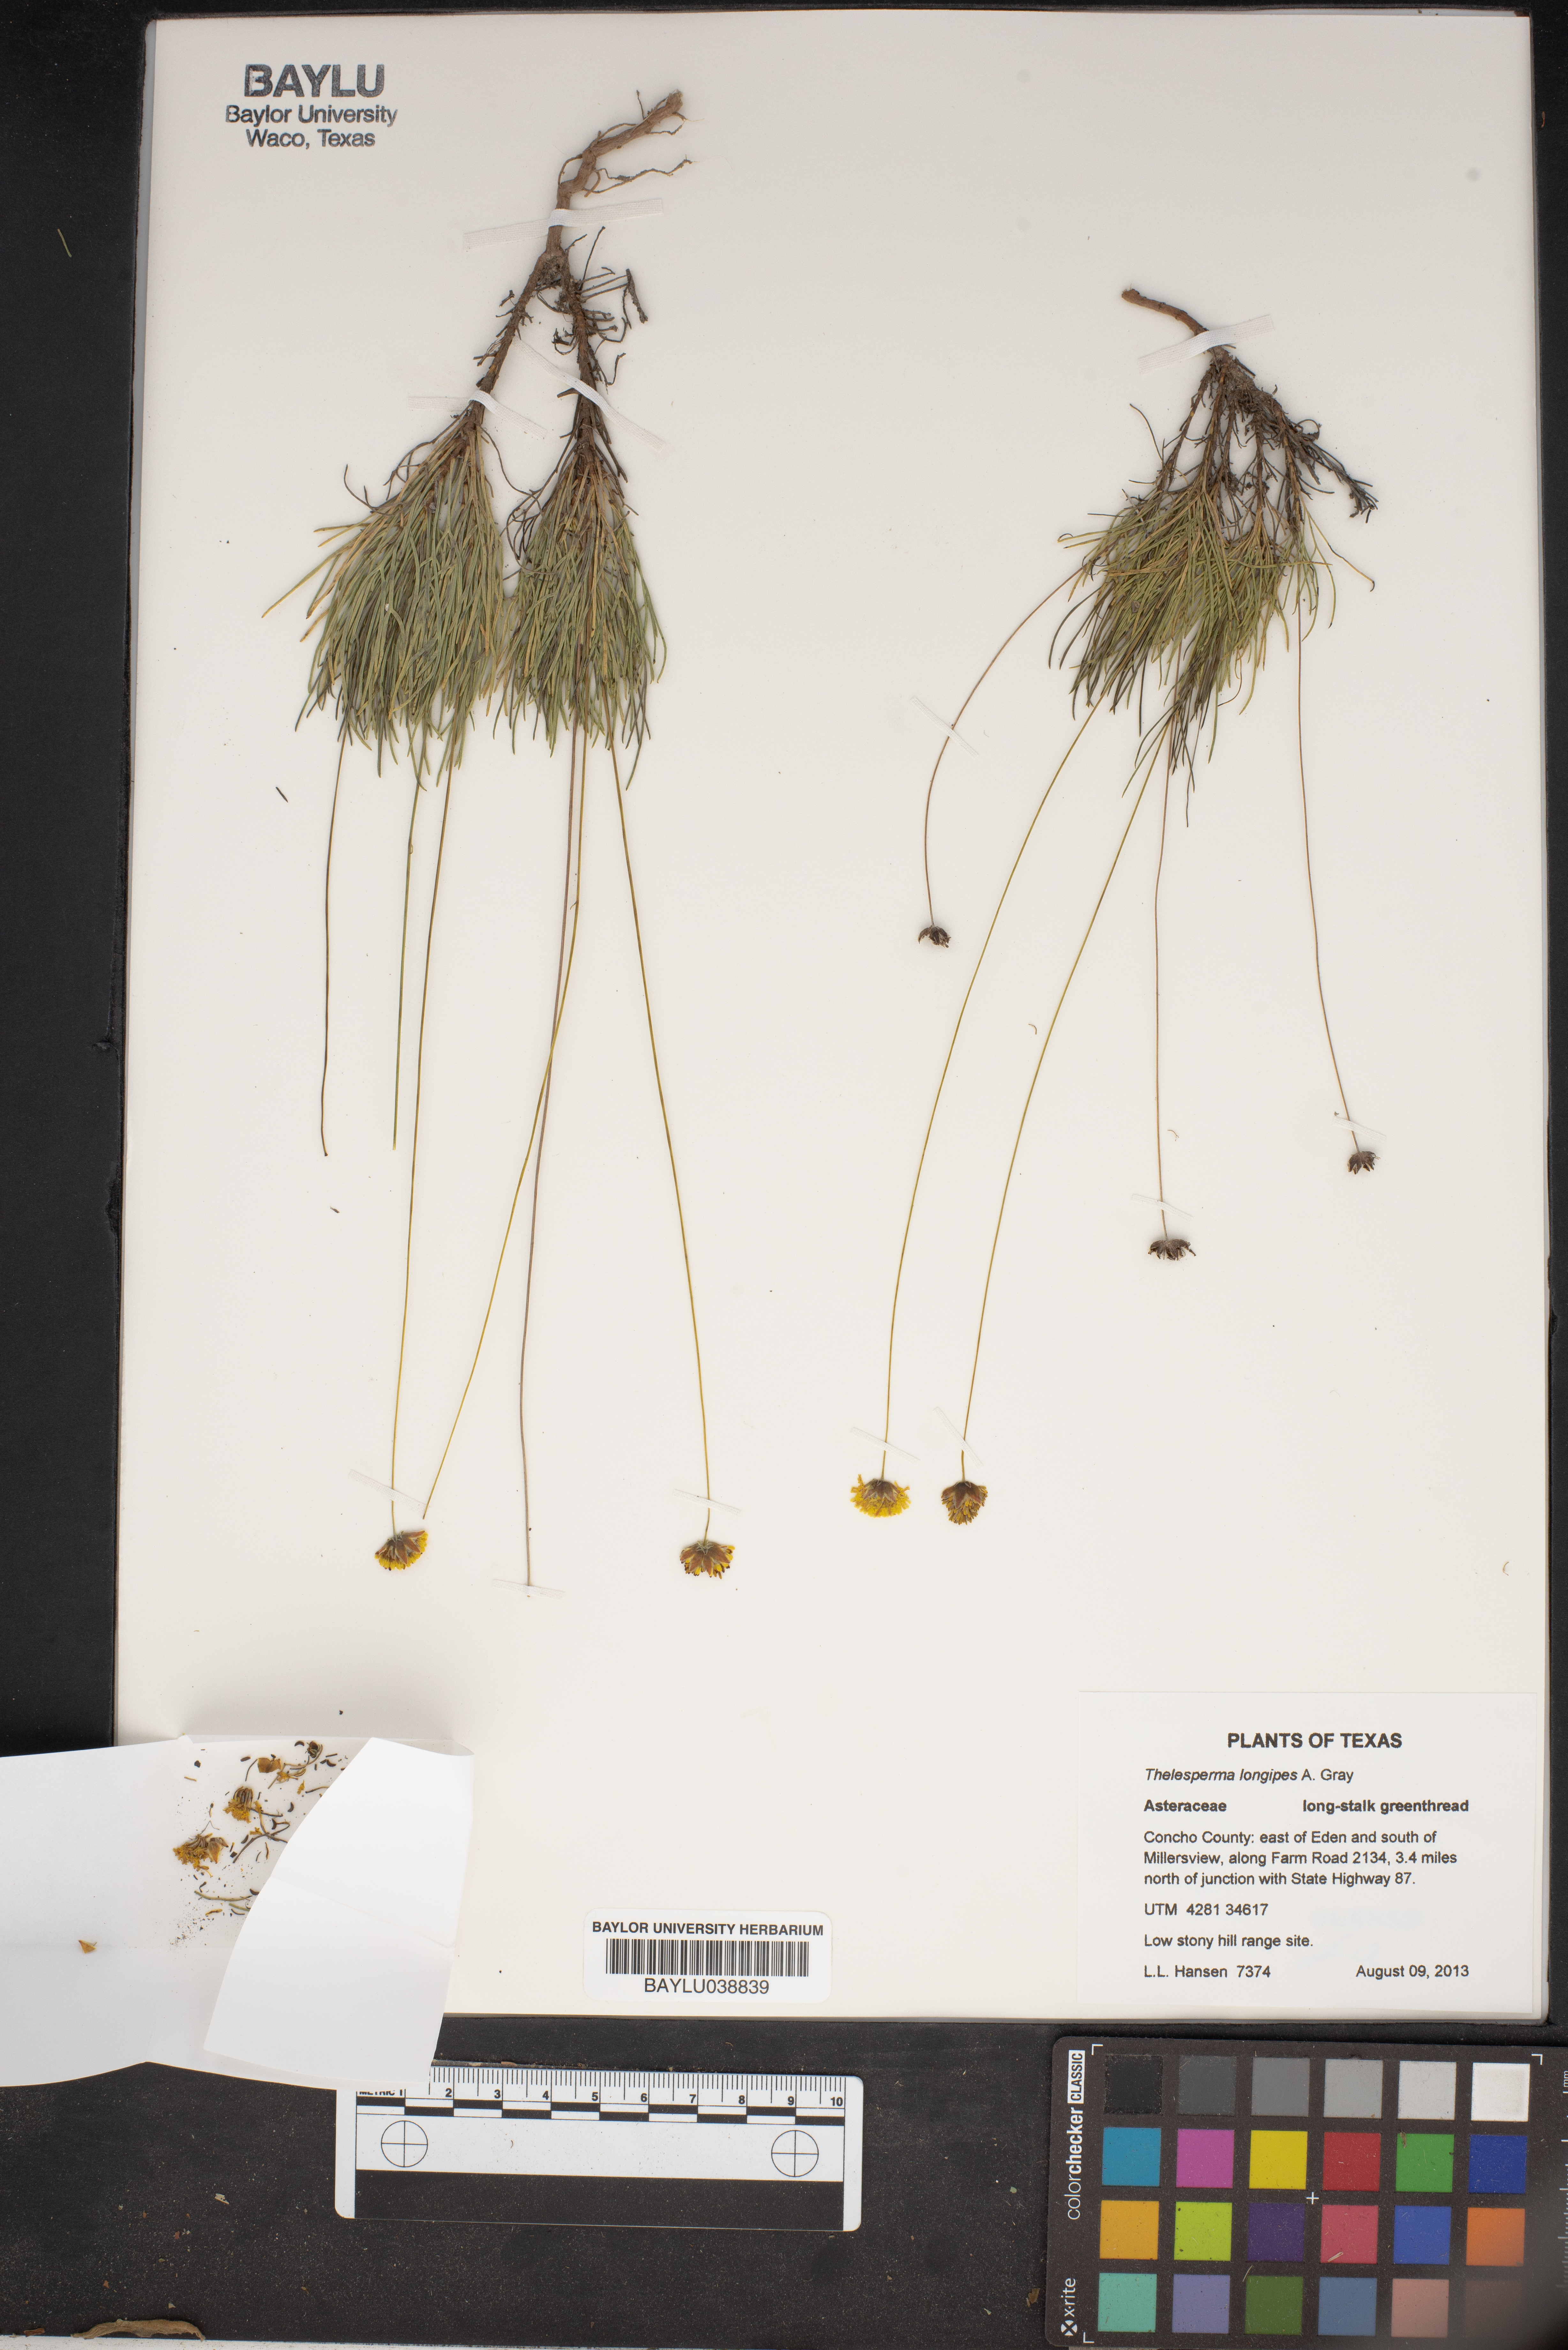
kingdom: Plantae
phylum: Tracheophyta
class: Magnoliopsida
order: Asterales
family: Asteraceae
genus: Thelesperma
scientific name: Thelesperma longipes
